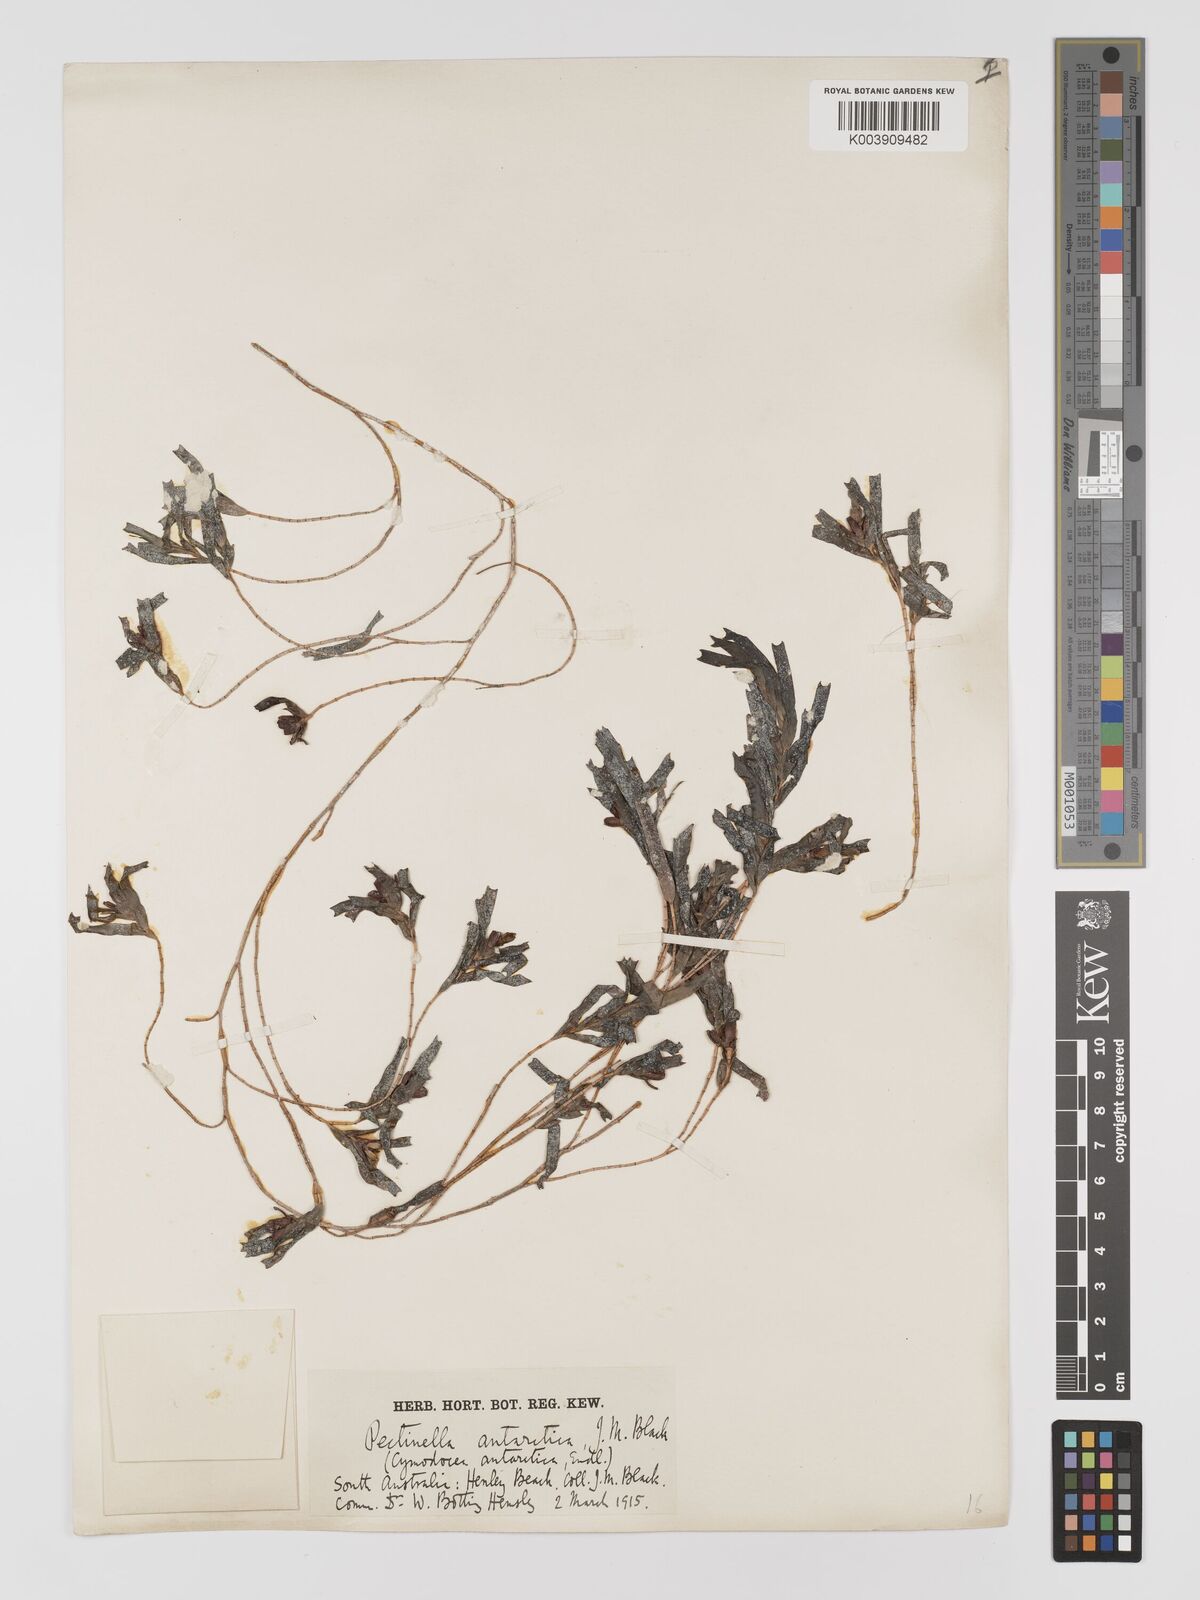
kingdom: Plantae
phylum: Tracheophyta
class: Liliopsida
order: Alismatales
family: Cymodoceaceae
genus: Amphibolis
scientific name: Amphibolis antarctica
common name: Species code: aa
